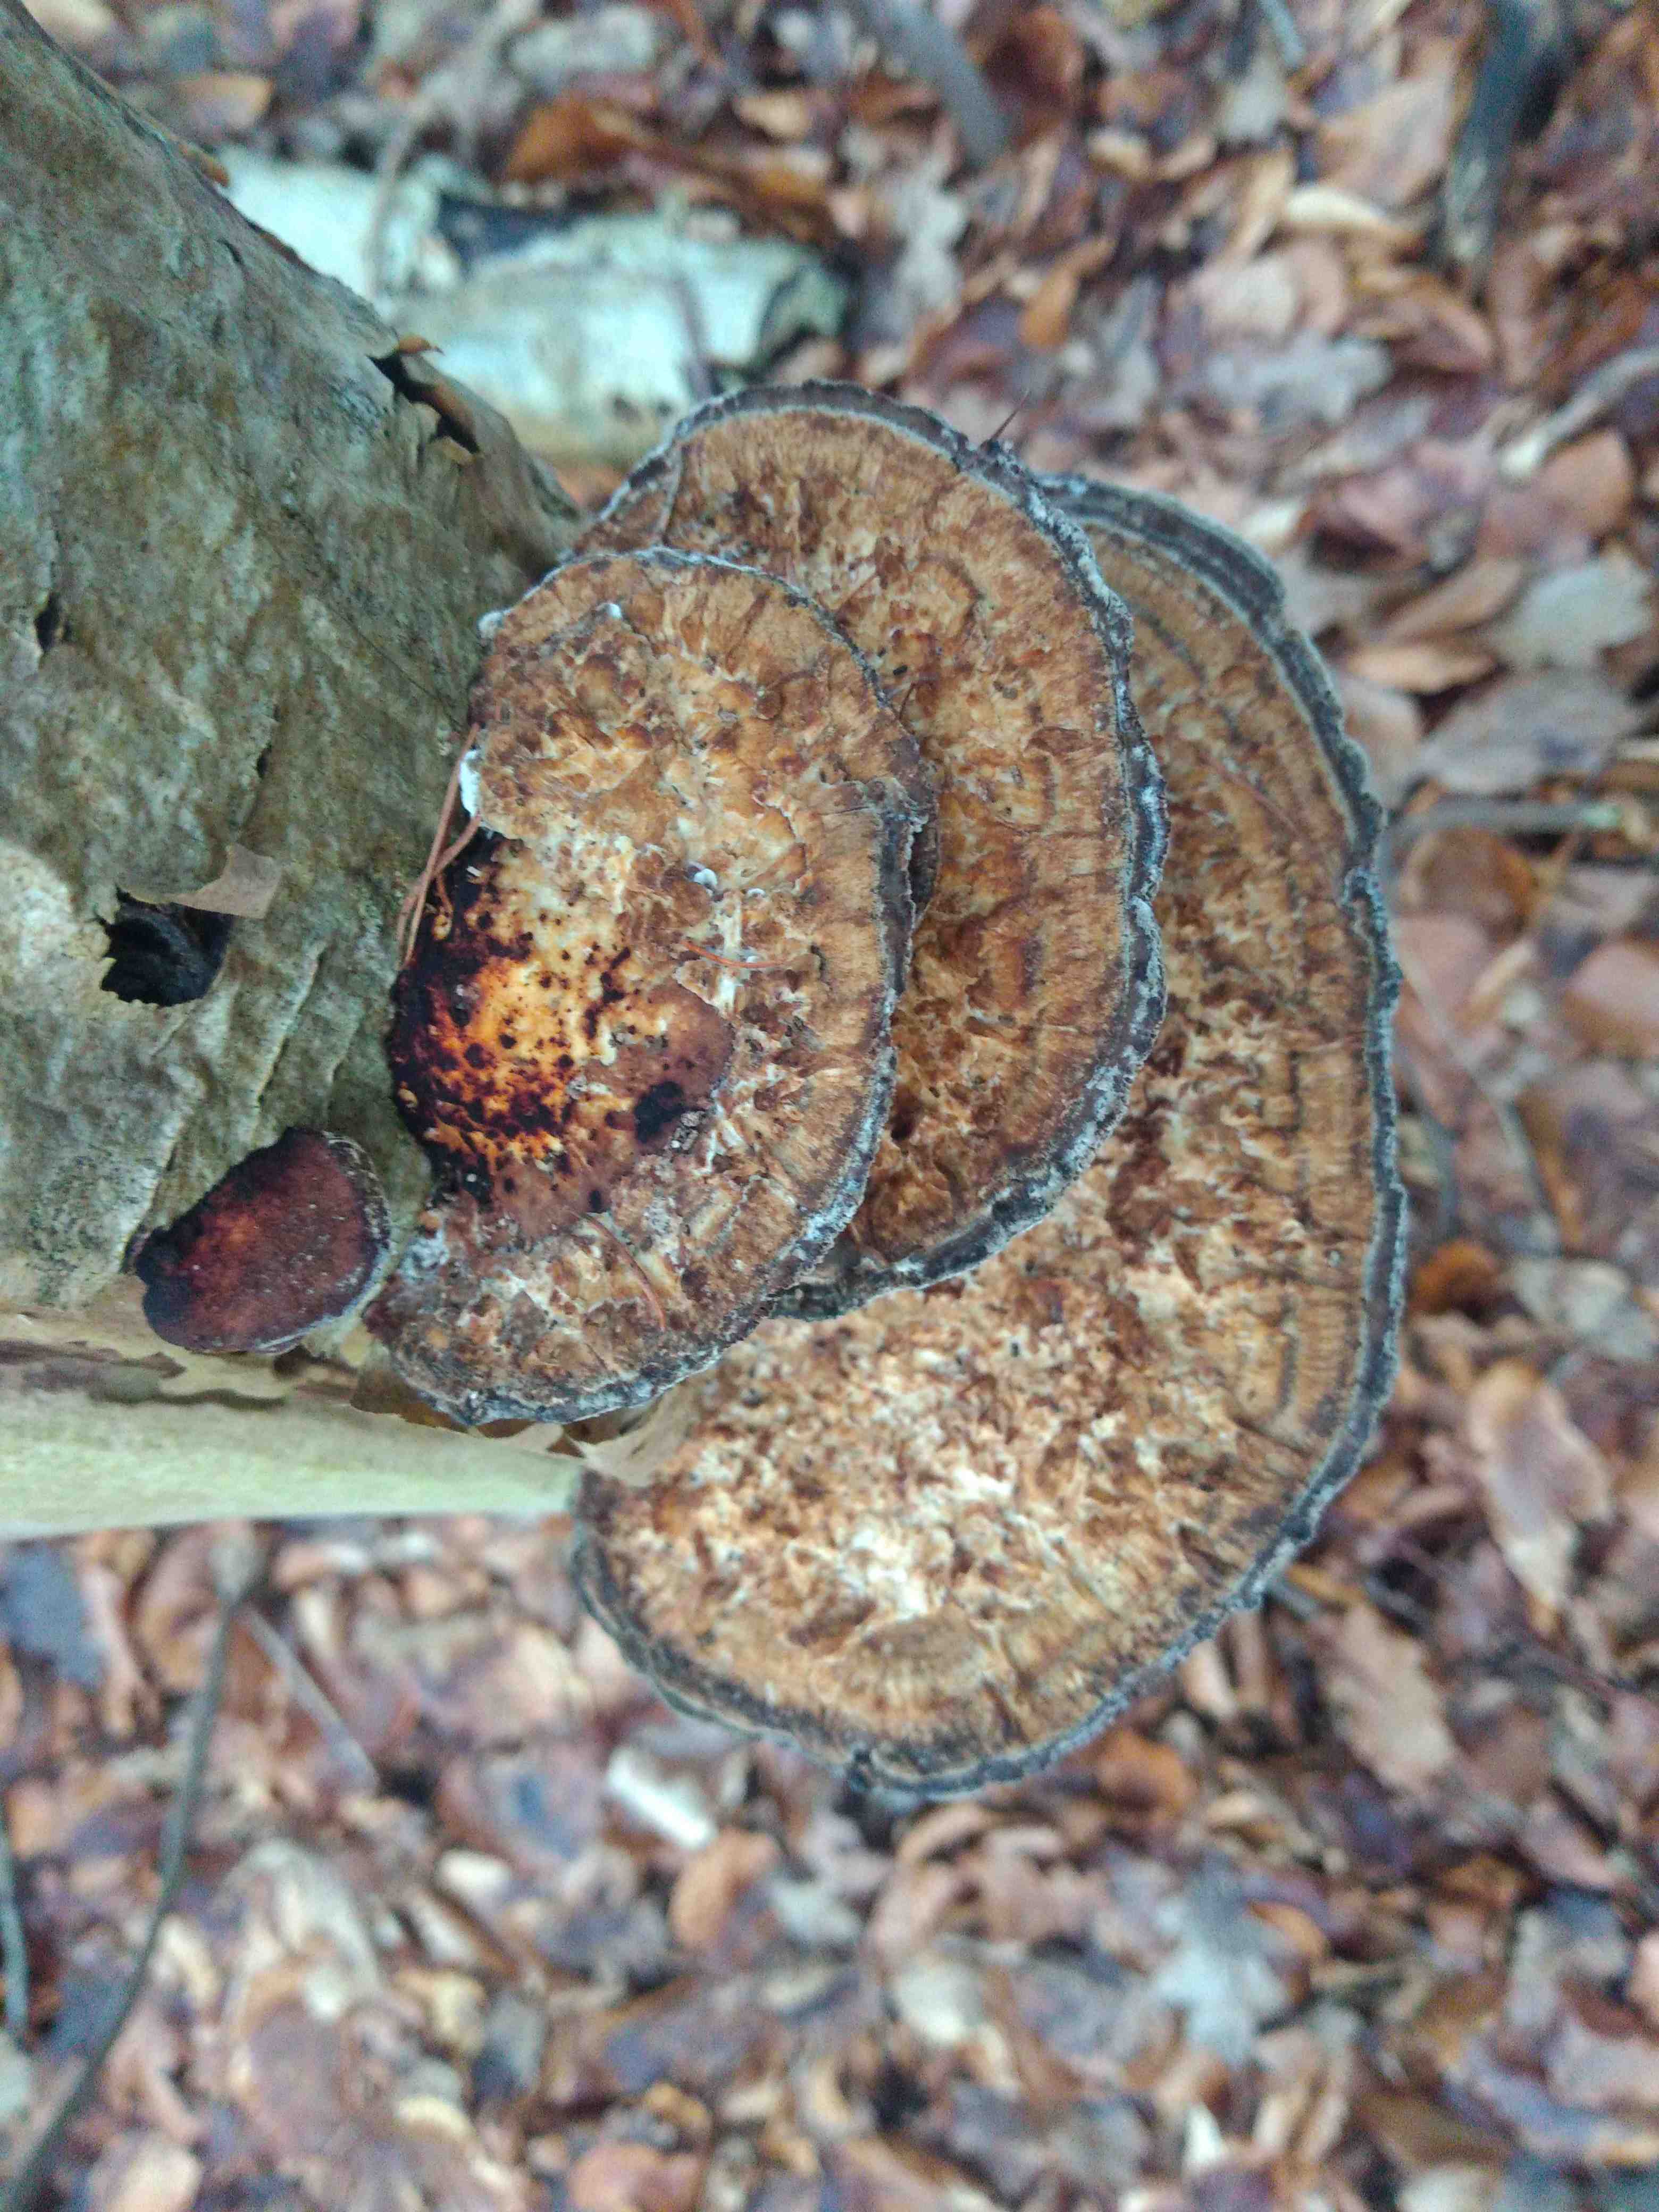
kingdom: Fungi
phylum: Basidiomycota
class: Agaricomycetes
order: Polyporales
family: Polyporaceae
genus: Daedaleopsis
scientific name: Daedaleopsis confragosa
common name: rødmende læderporesvamp
